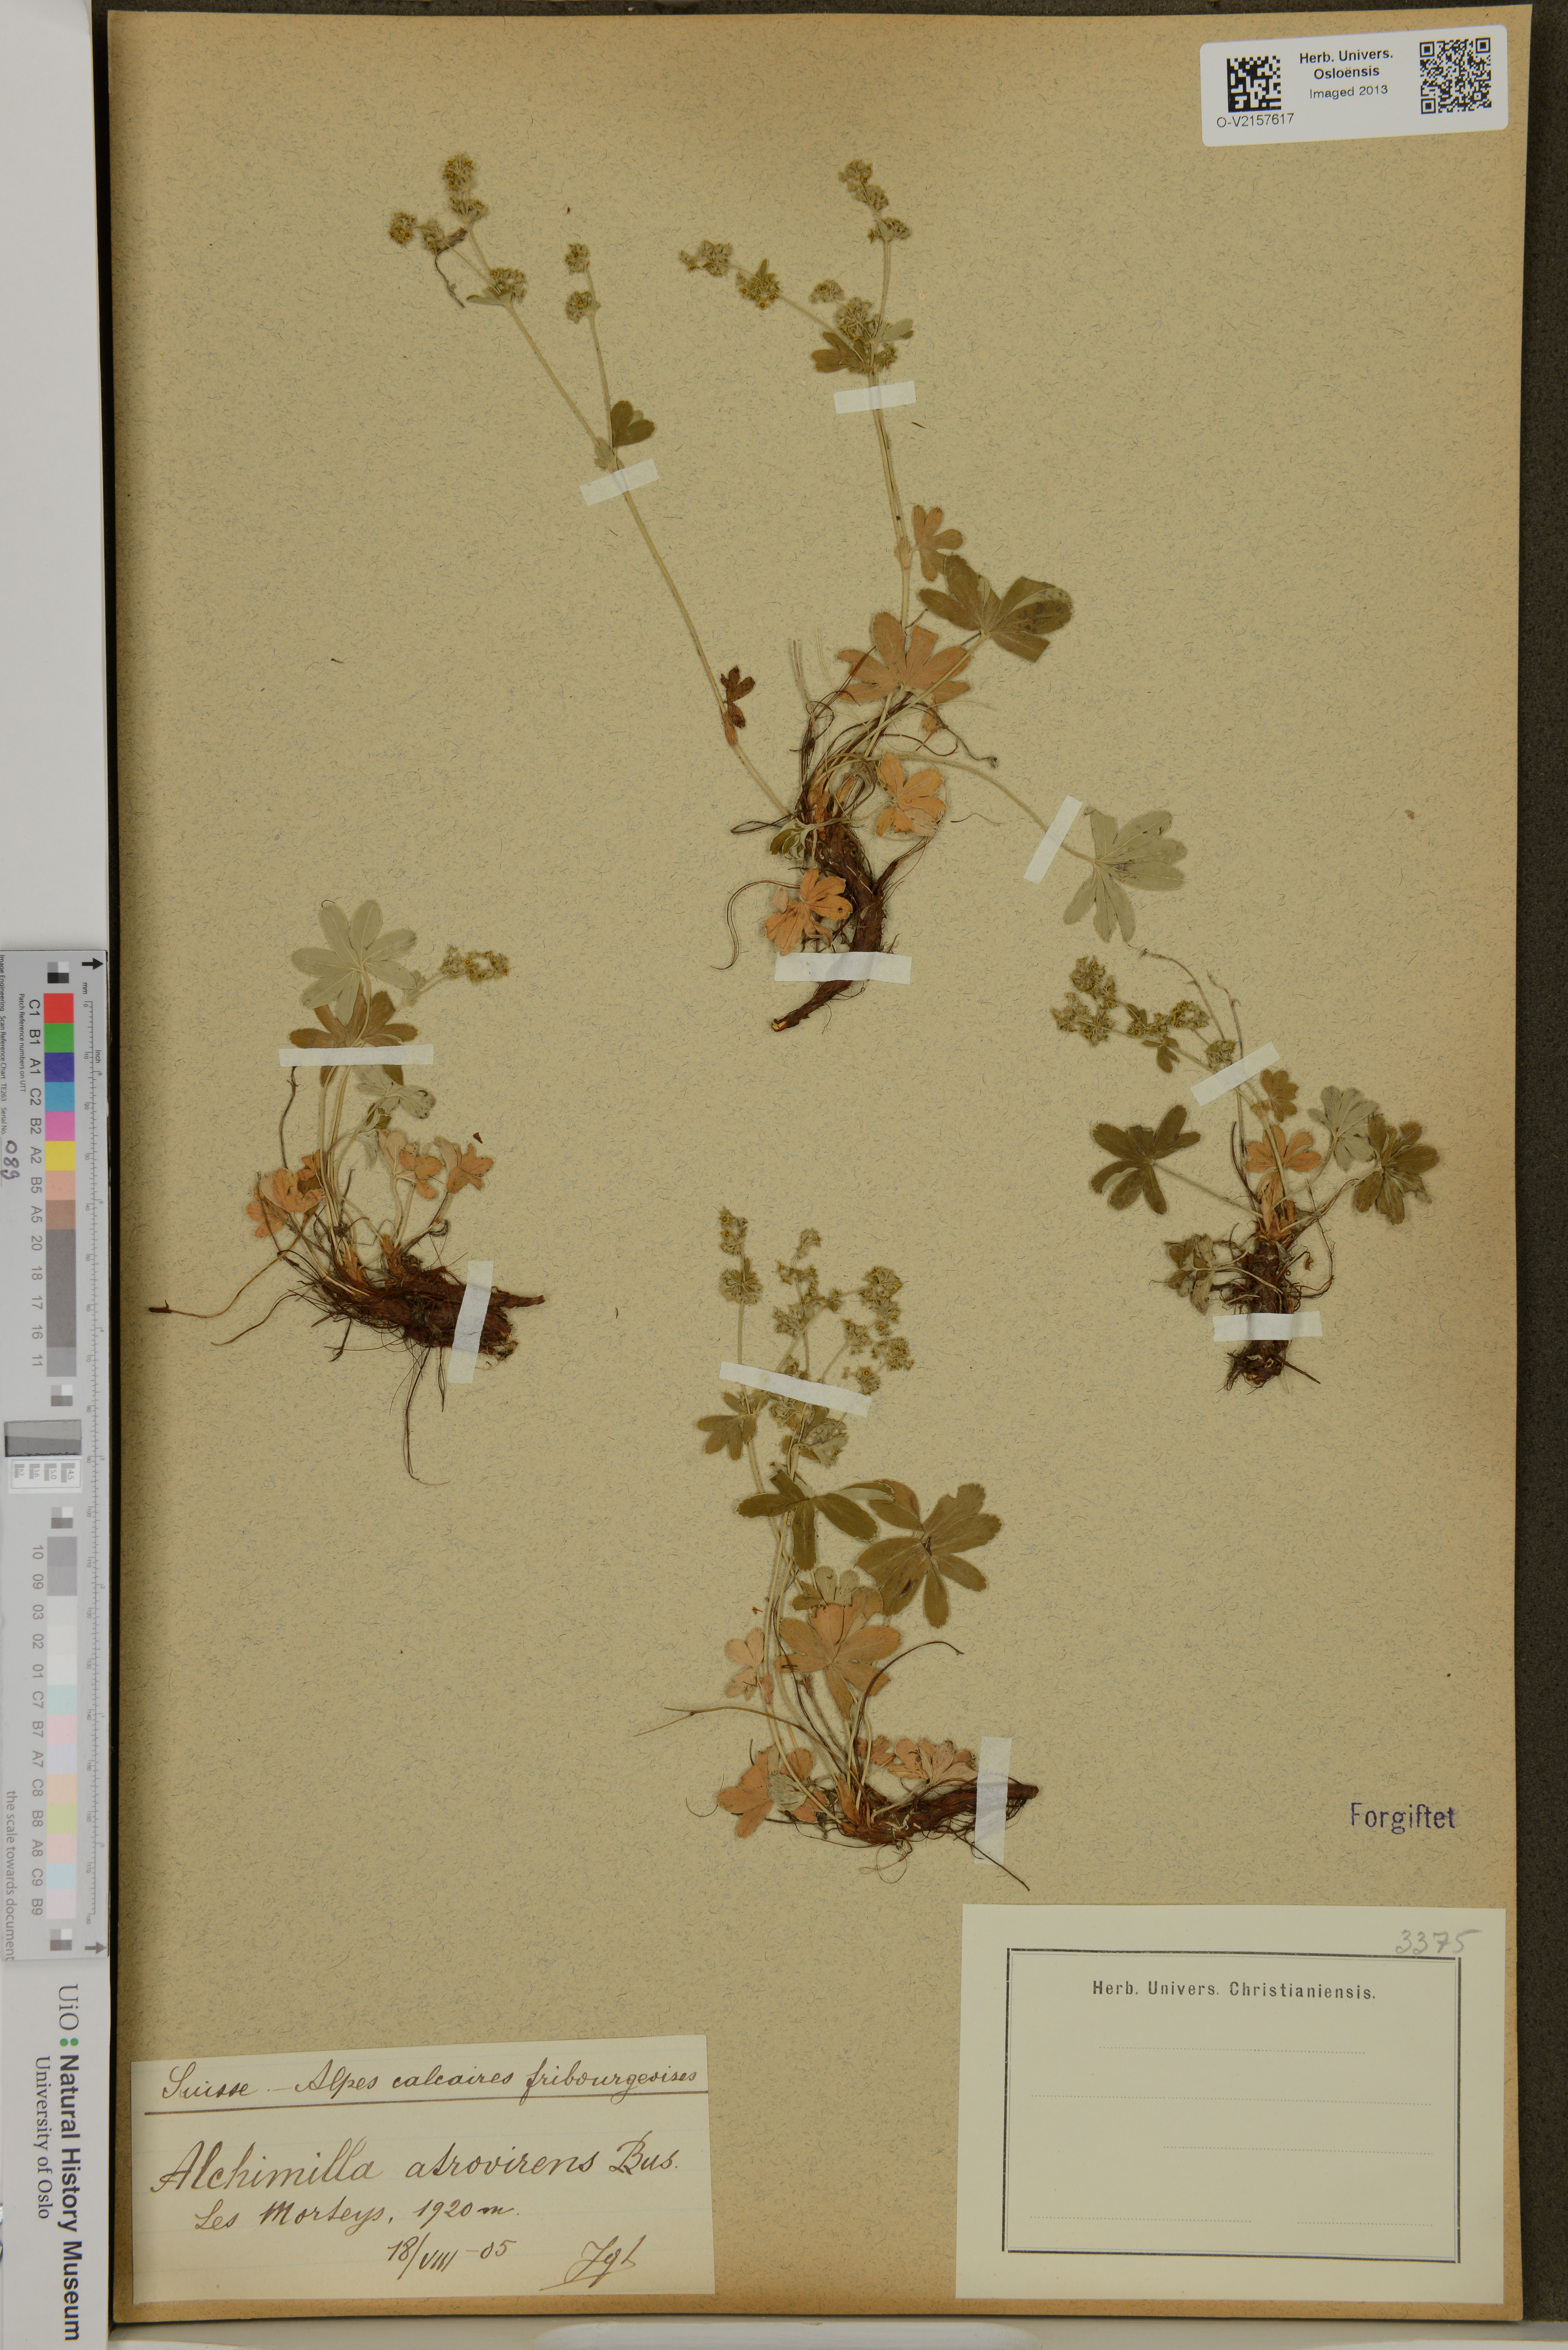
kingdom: Plantae
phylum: Tracheophyta
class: Magnoliopsida
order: Rosales
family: Rosaceae
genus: Alchemilla
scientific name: Alchemilla atrovirens
